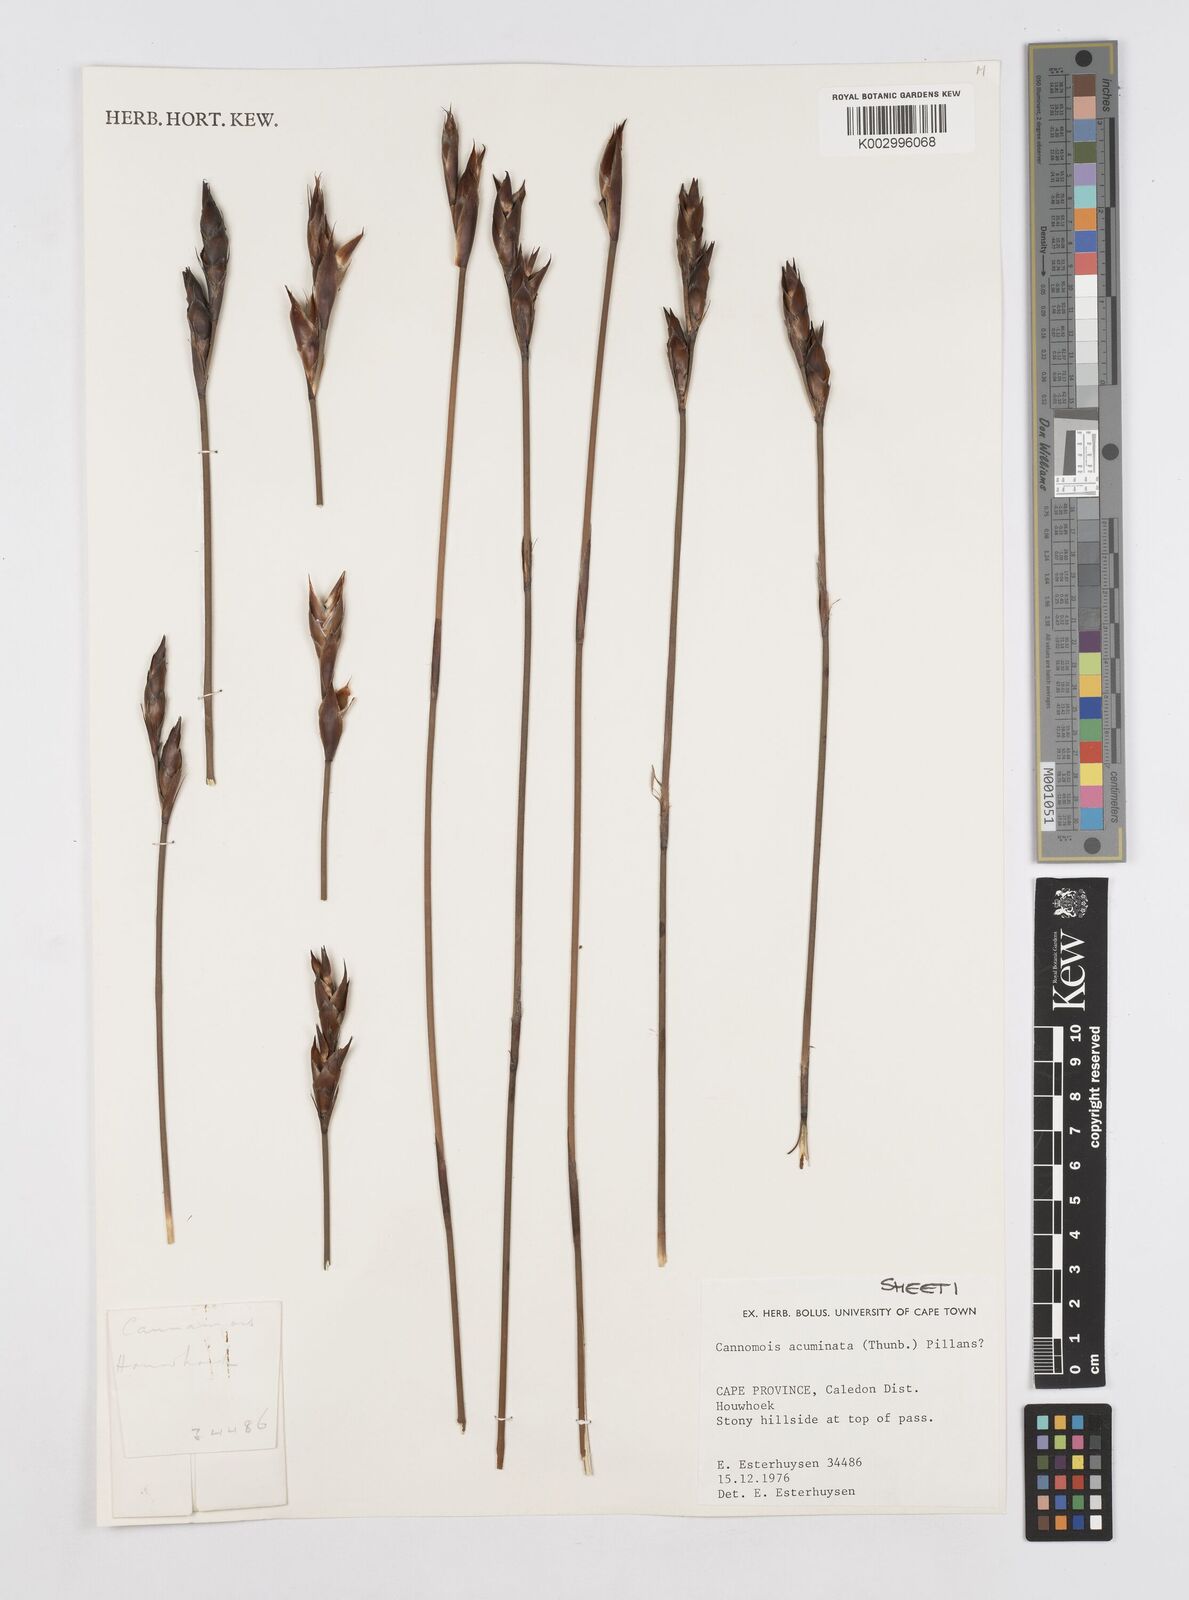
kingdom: Plantae
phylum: Tracheophyta
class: Liliopsida
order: Poales
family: Restionaceae
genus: Cannomois
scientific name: Cannomois parviflora
